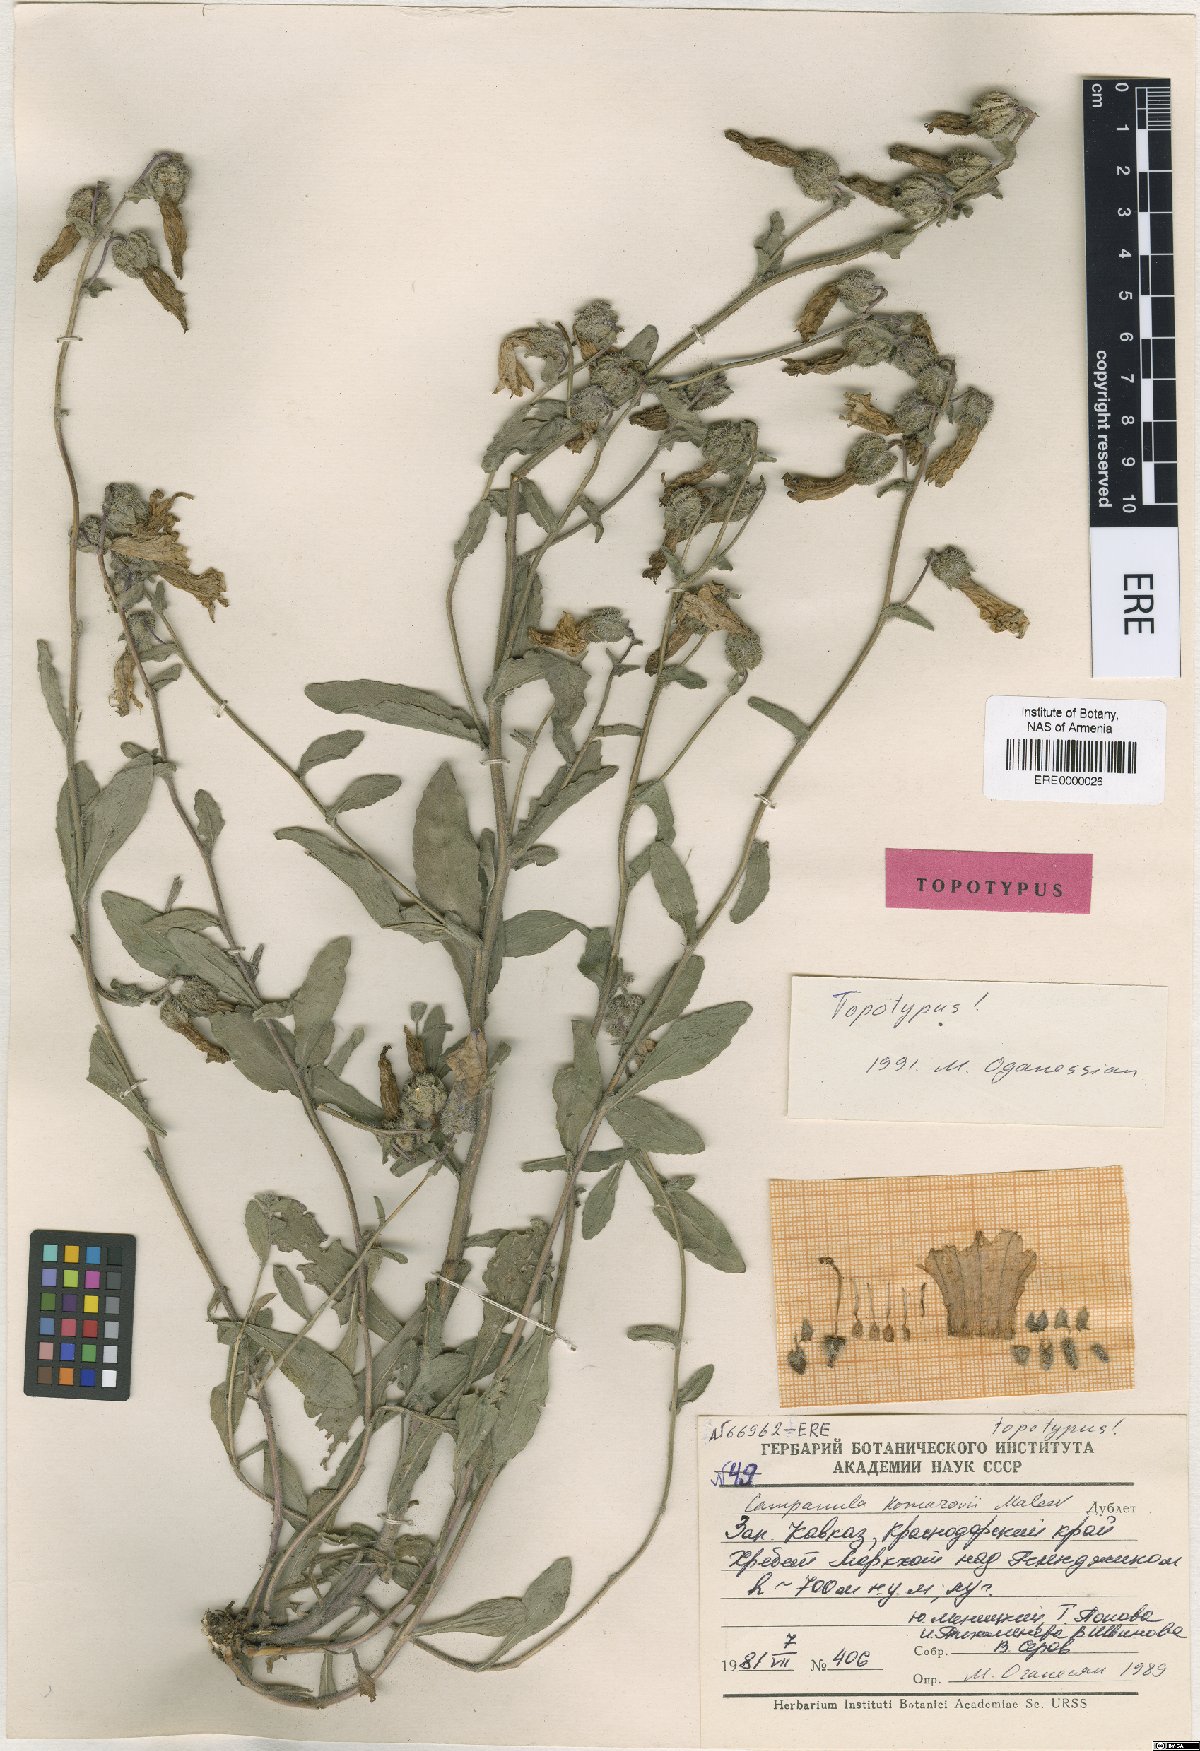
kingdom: Plantae
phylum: Tracheophyta
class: Magnoliopsida
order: Asterales
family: Campanulaceae
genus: Campanula
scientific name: Campanula komarovii
